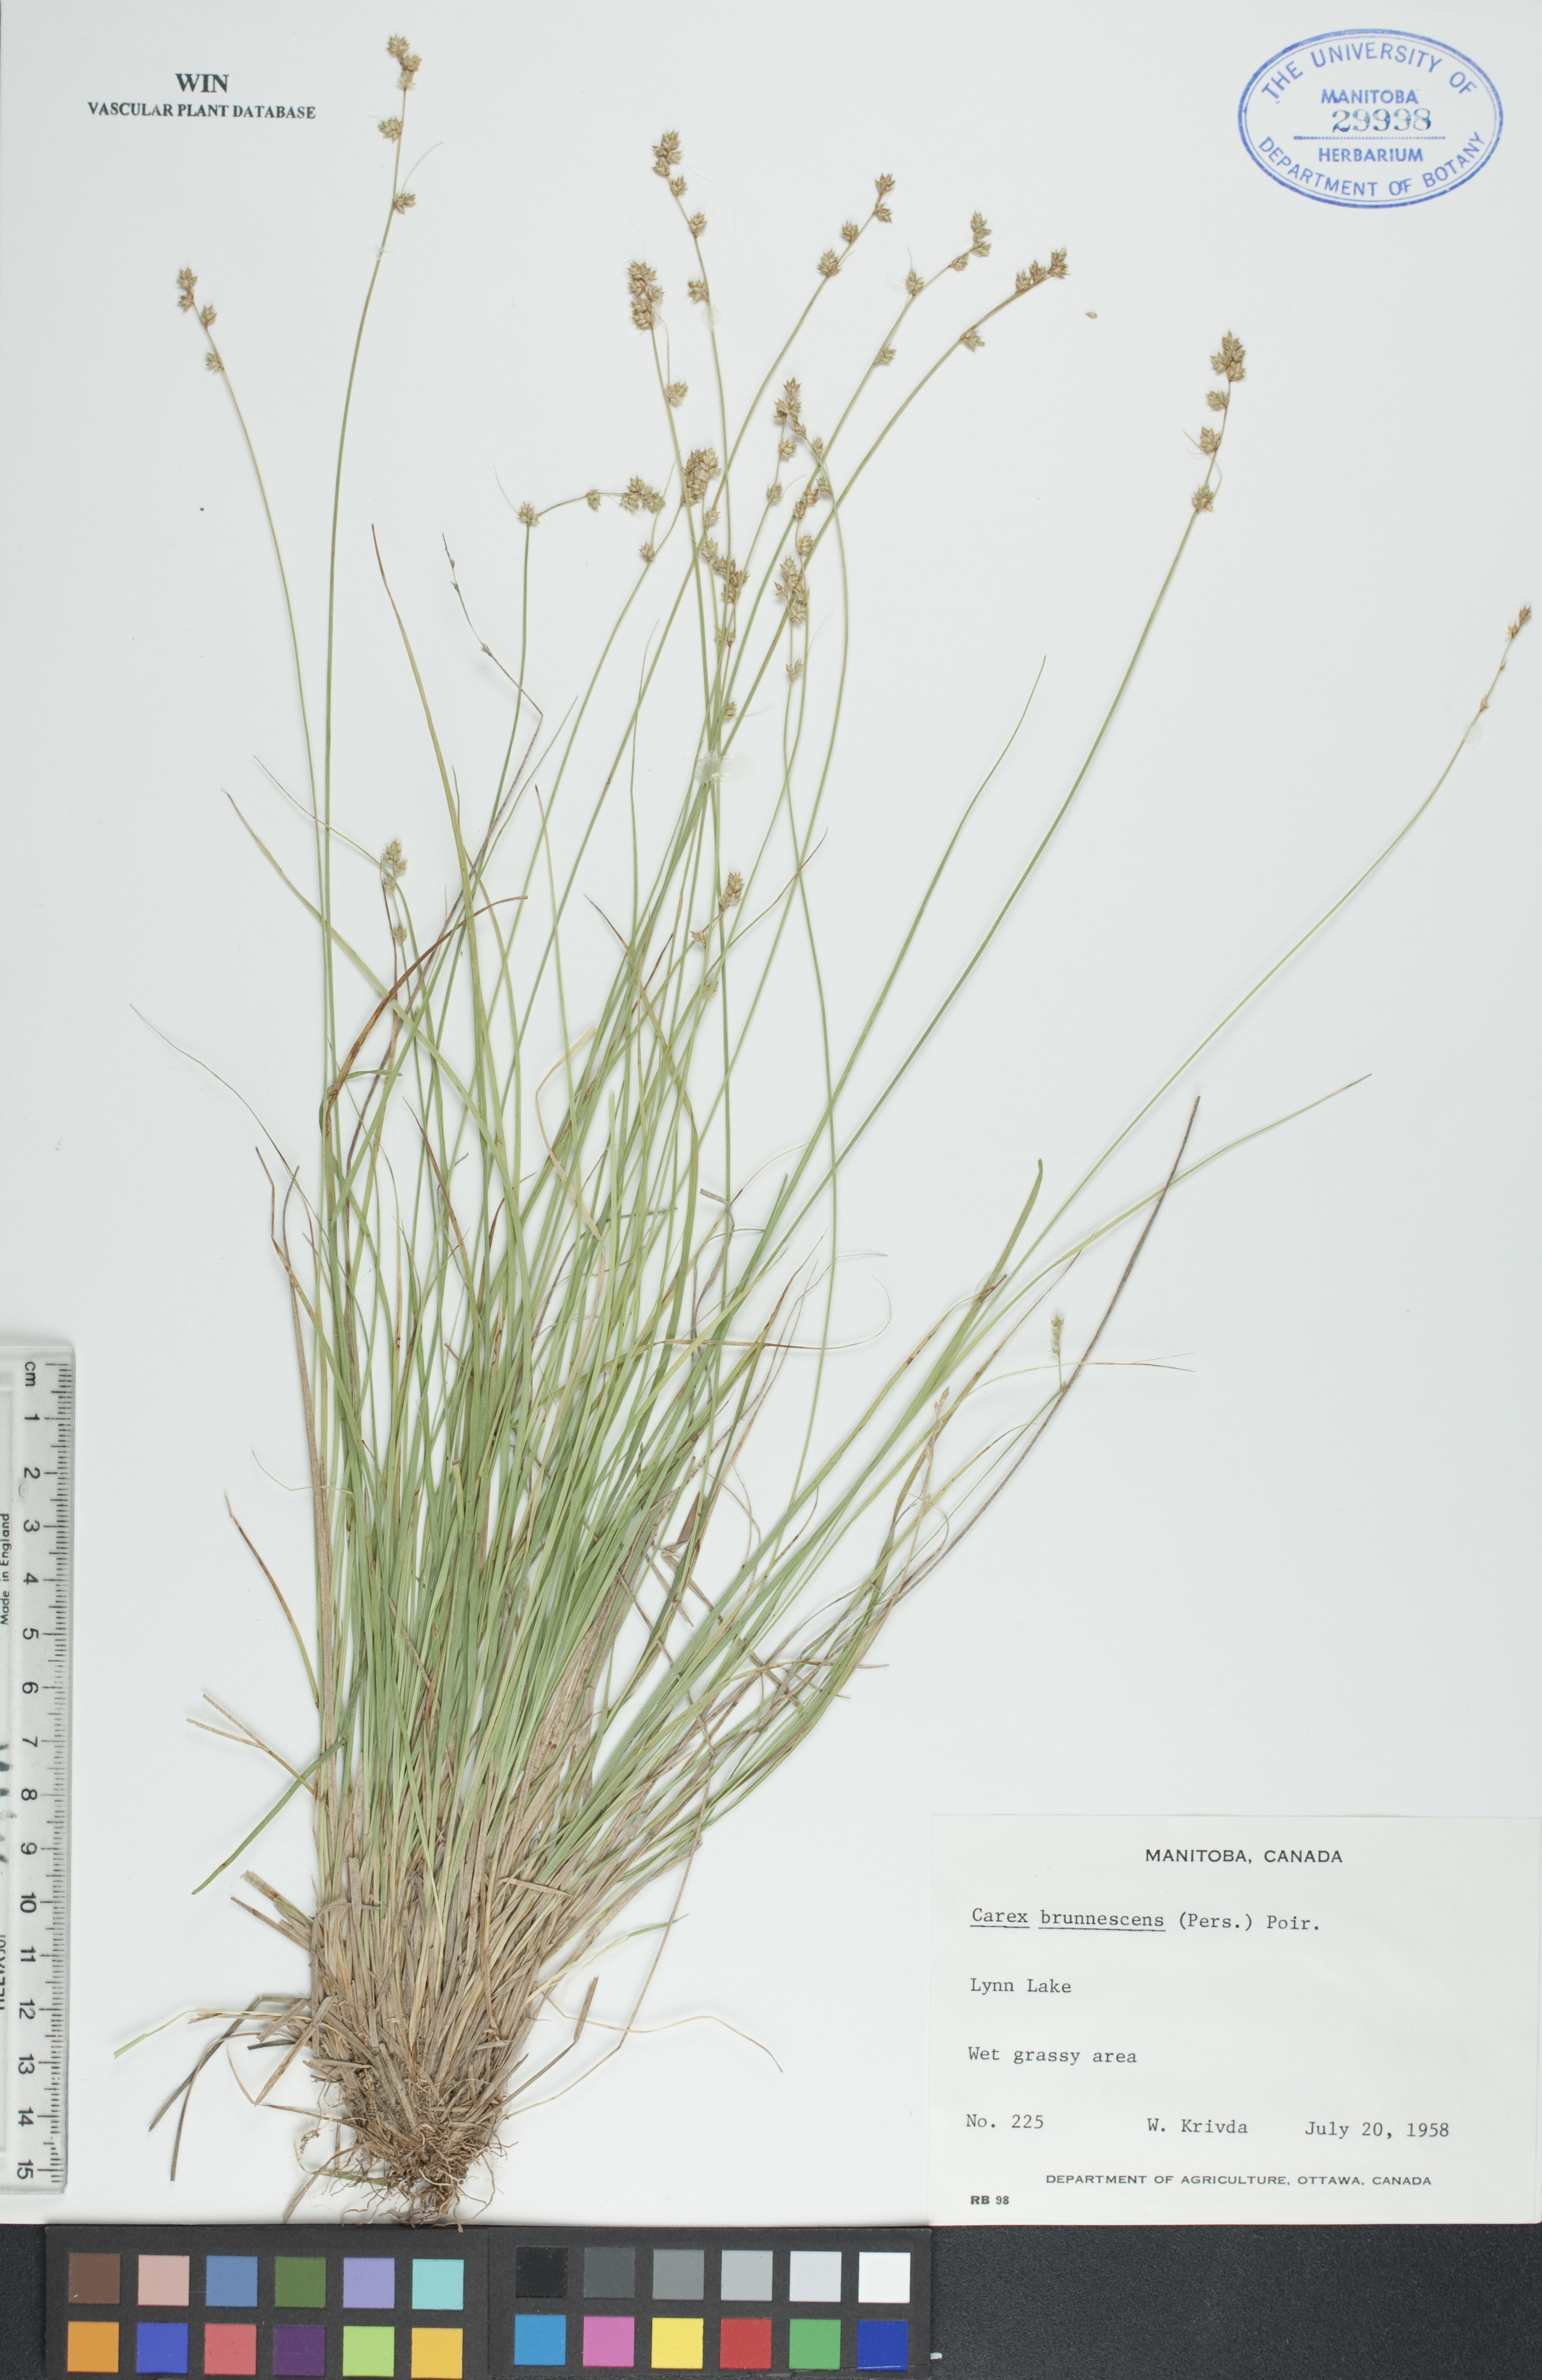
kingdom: Plantae
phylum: Tracheophyta
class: Liliopsida
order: Poales
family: Cyperaceae
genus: Carex
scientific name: Carex brunnescens
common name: Brown sedge
